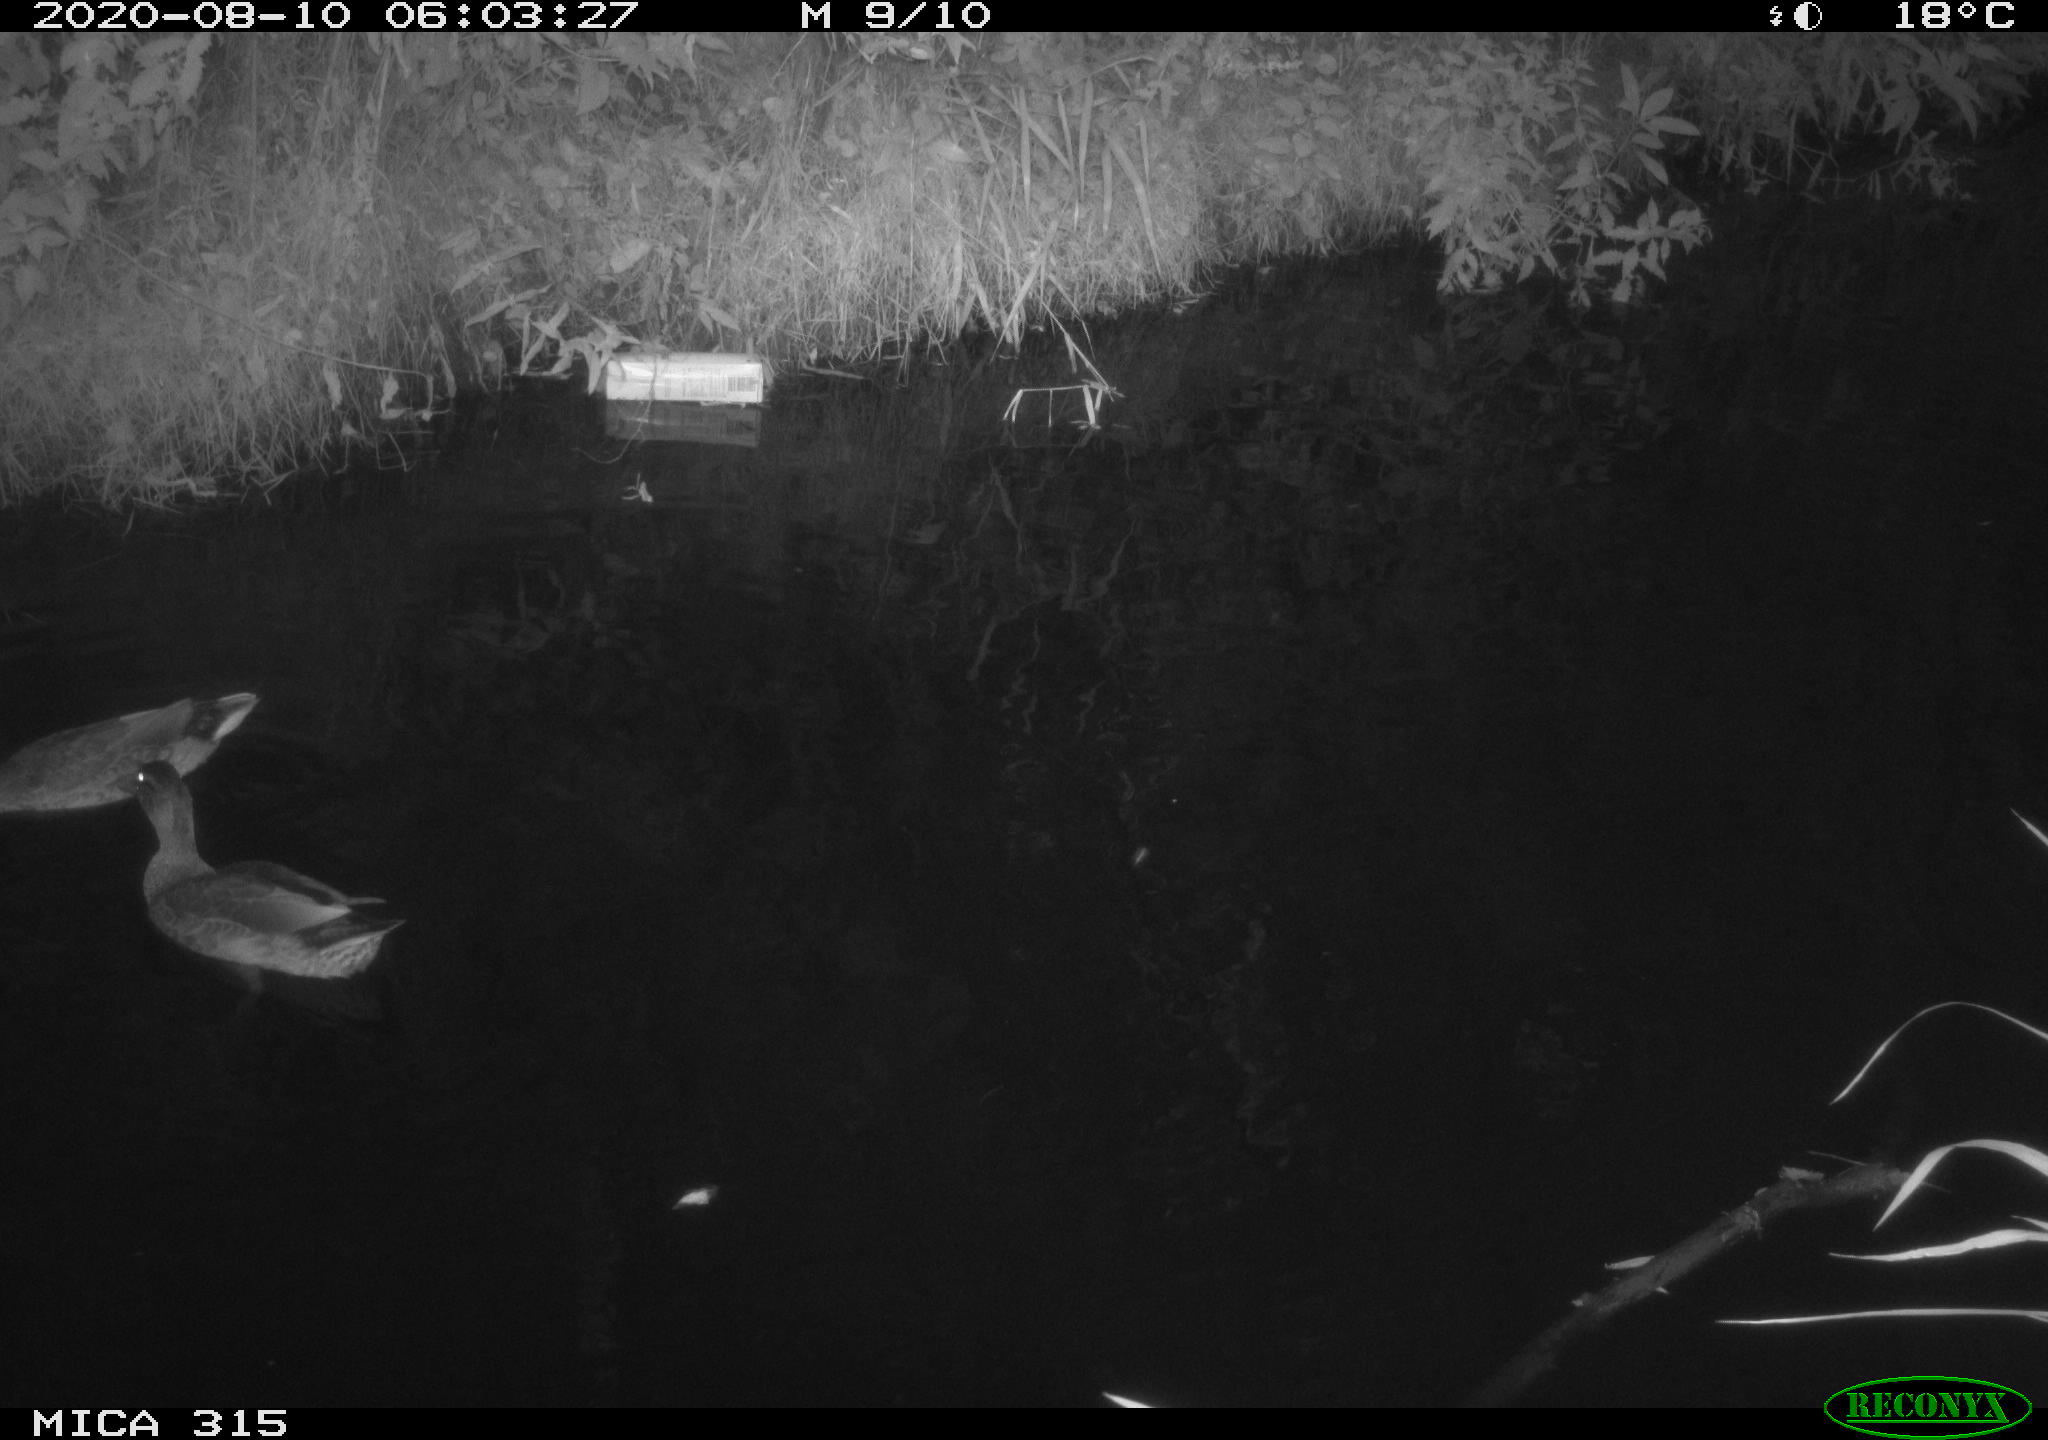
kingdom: Animalia
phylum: Chordata
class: Aves
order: Anseriformes
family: Anatidae
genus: Anas
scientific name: Anas platyrhynchos
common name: Mallard
